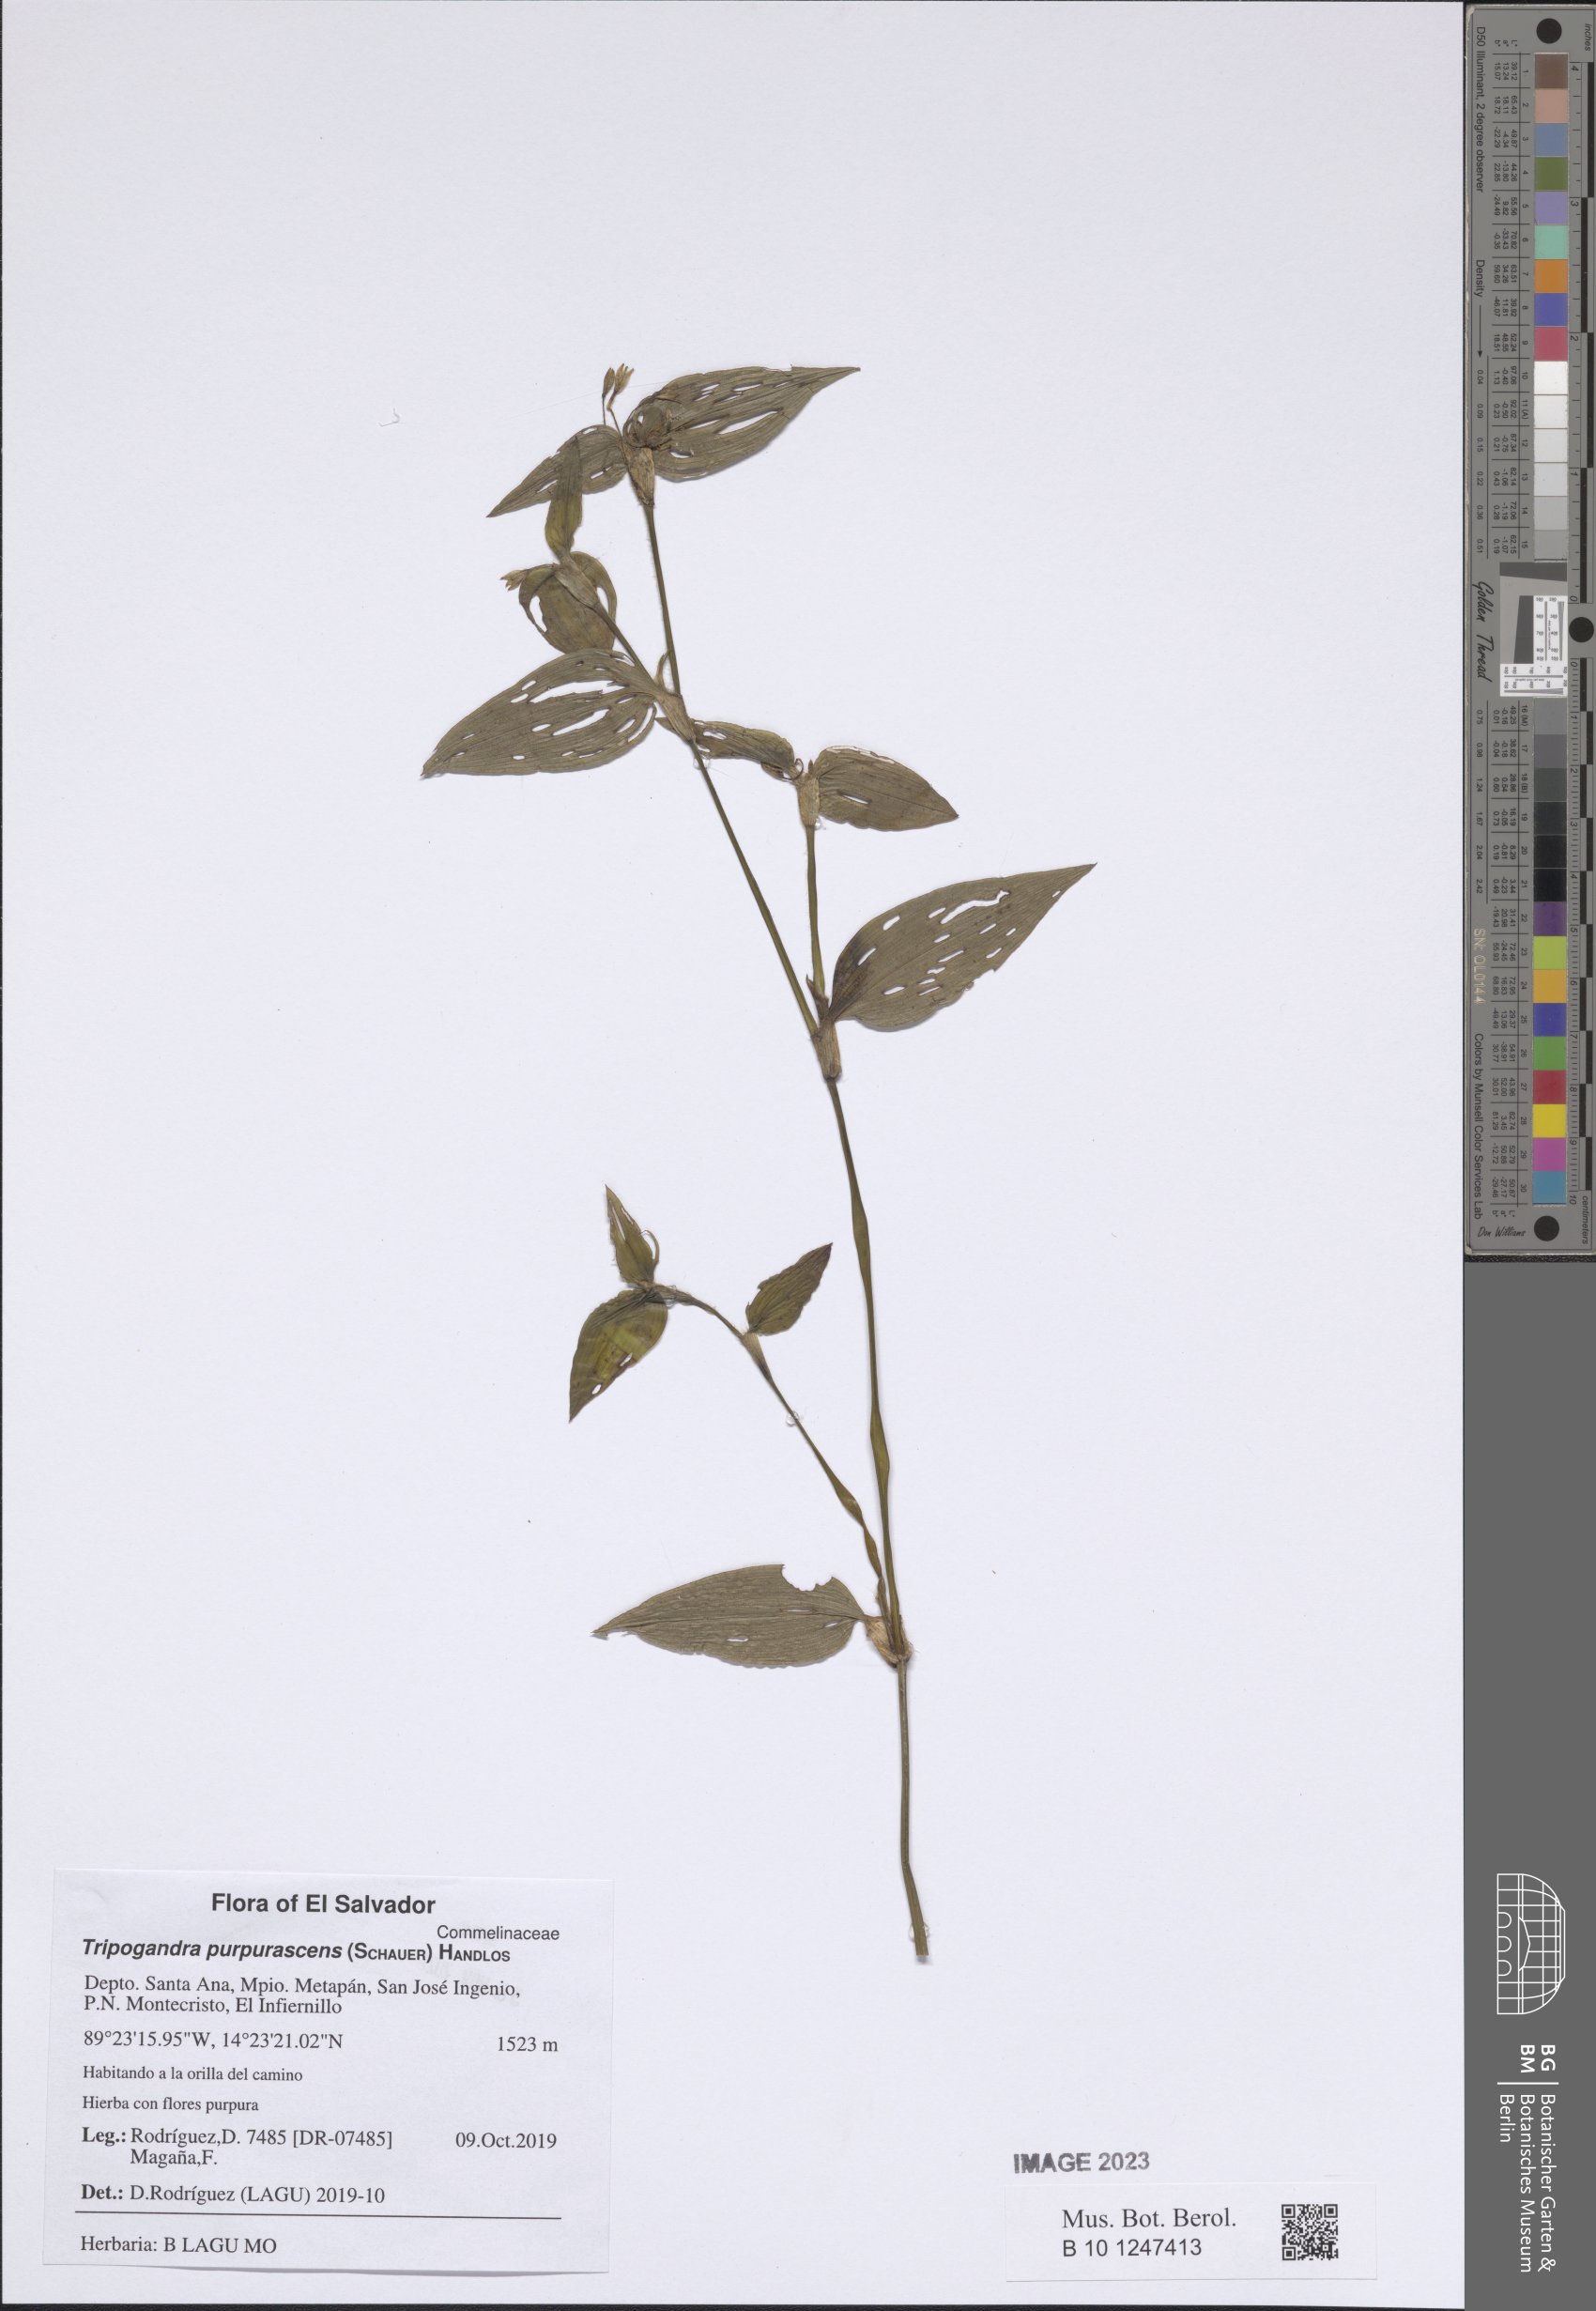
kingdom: Plantae
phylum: Tracheophyta
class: Liliopsida
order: Commelinales
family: Commelinaceae
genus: Callisia
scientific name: Callisia purpurascens
